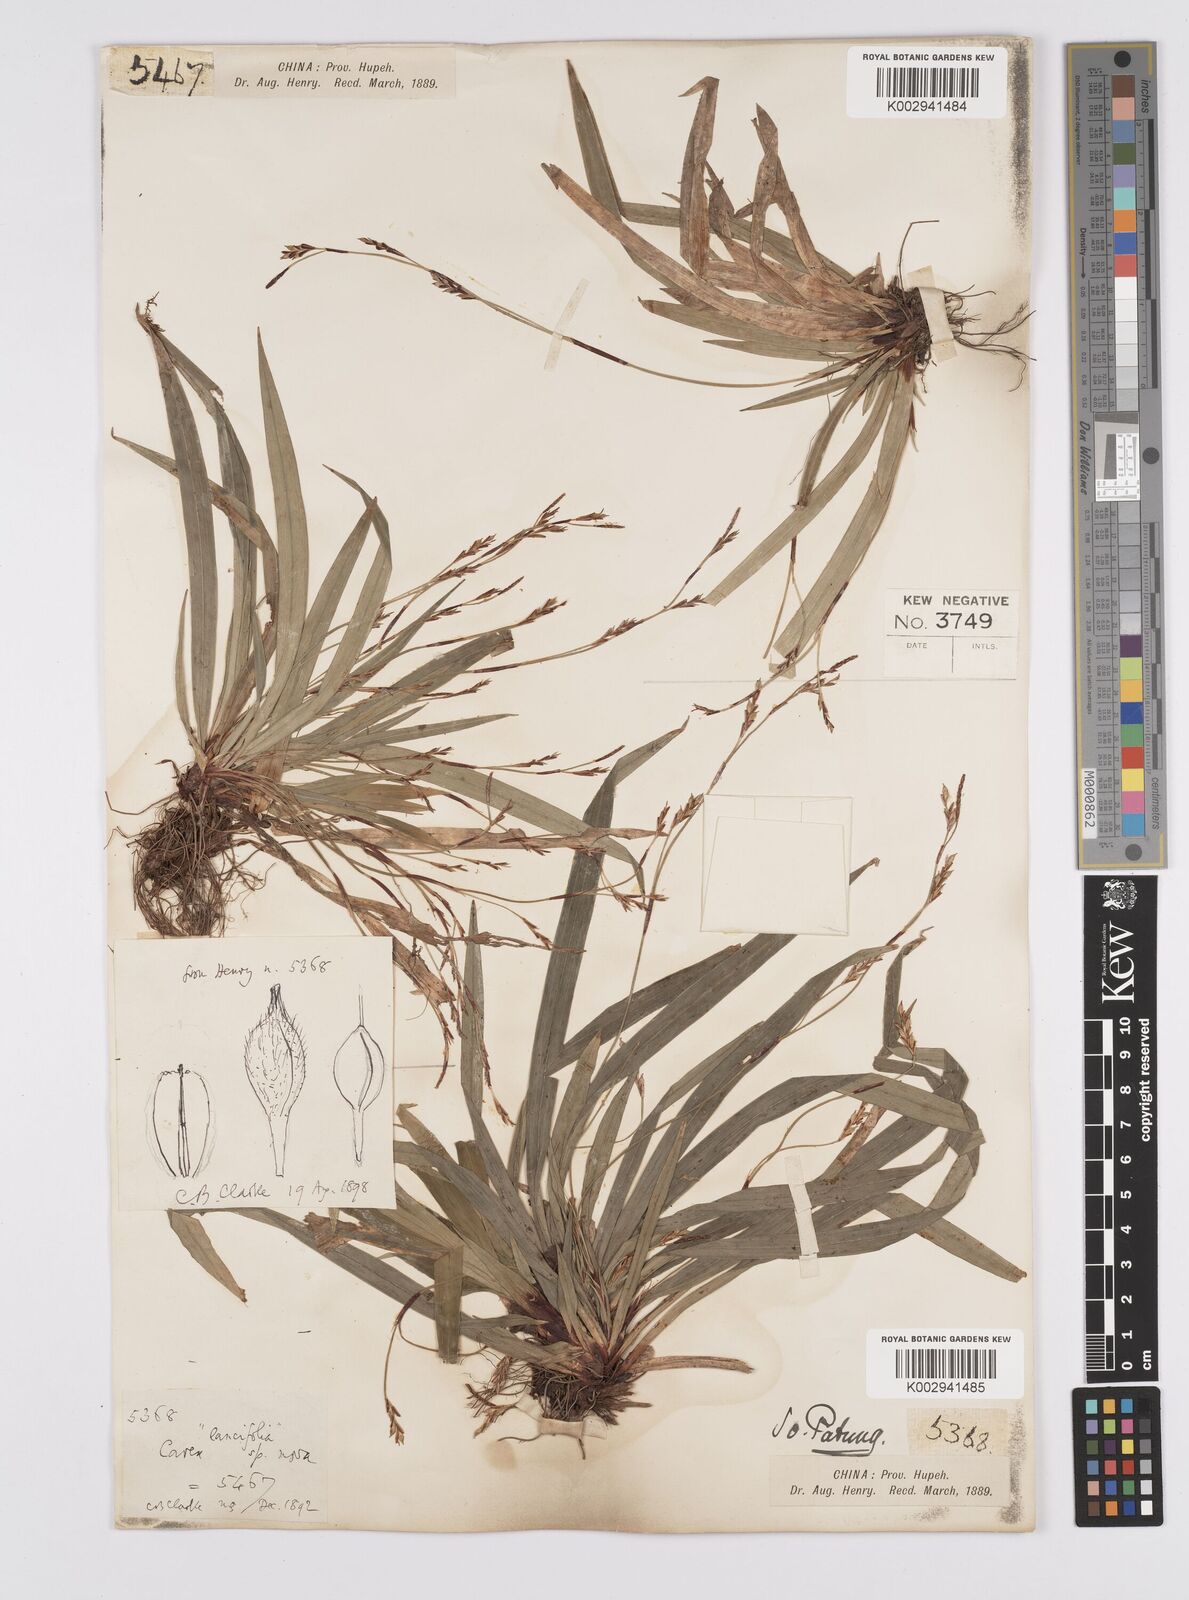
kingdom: Plantae
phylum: Tracheophyta
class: Liliopsida
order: Poales
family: Cyperaceae
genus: Carex
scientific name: Carex lancifolia
